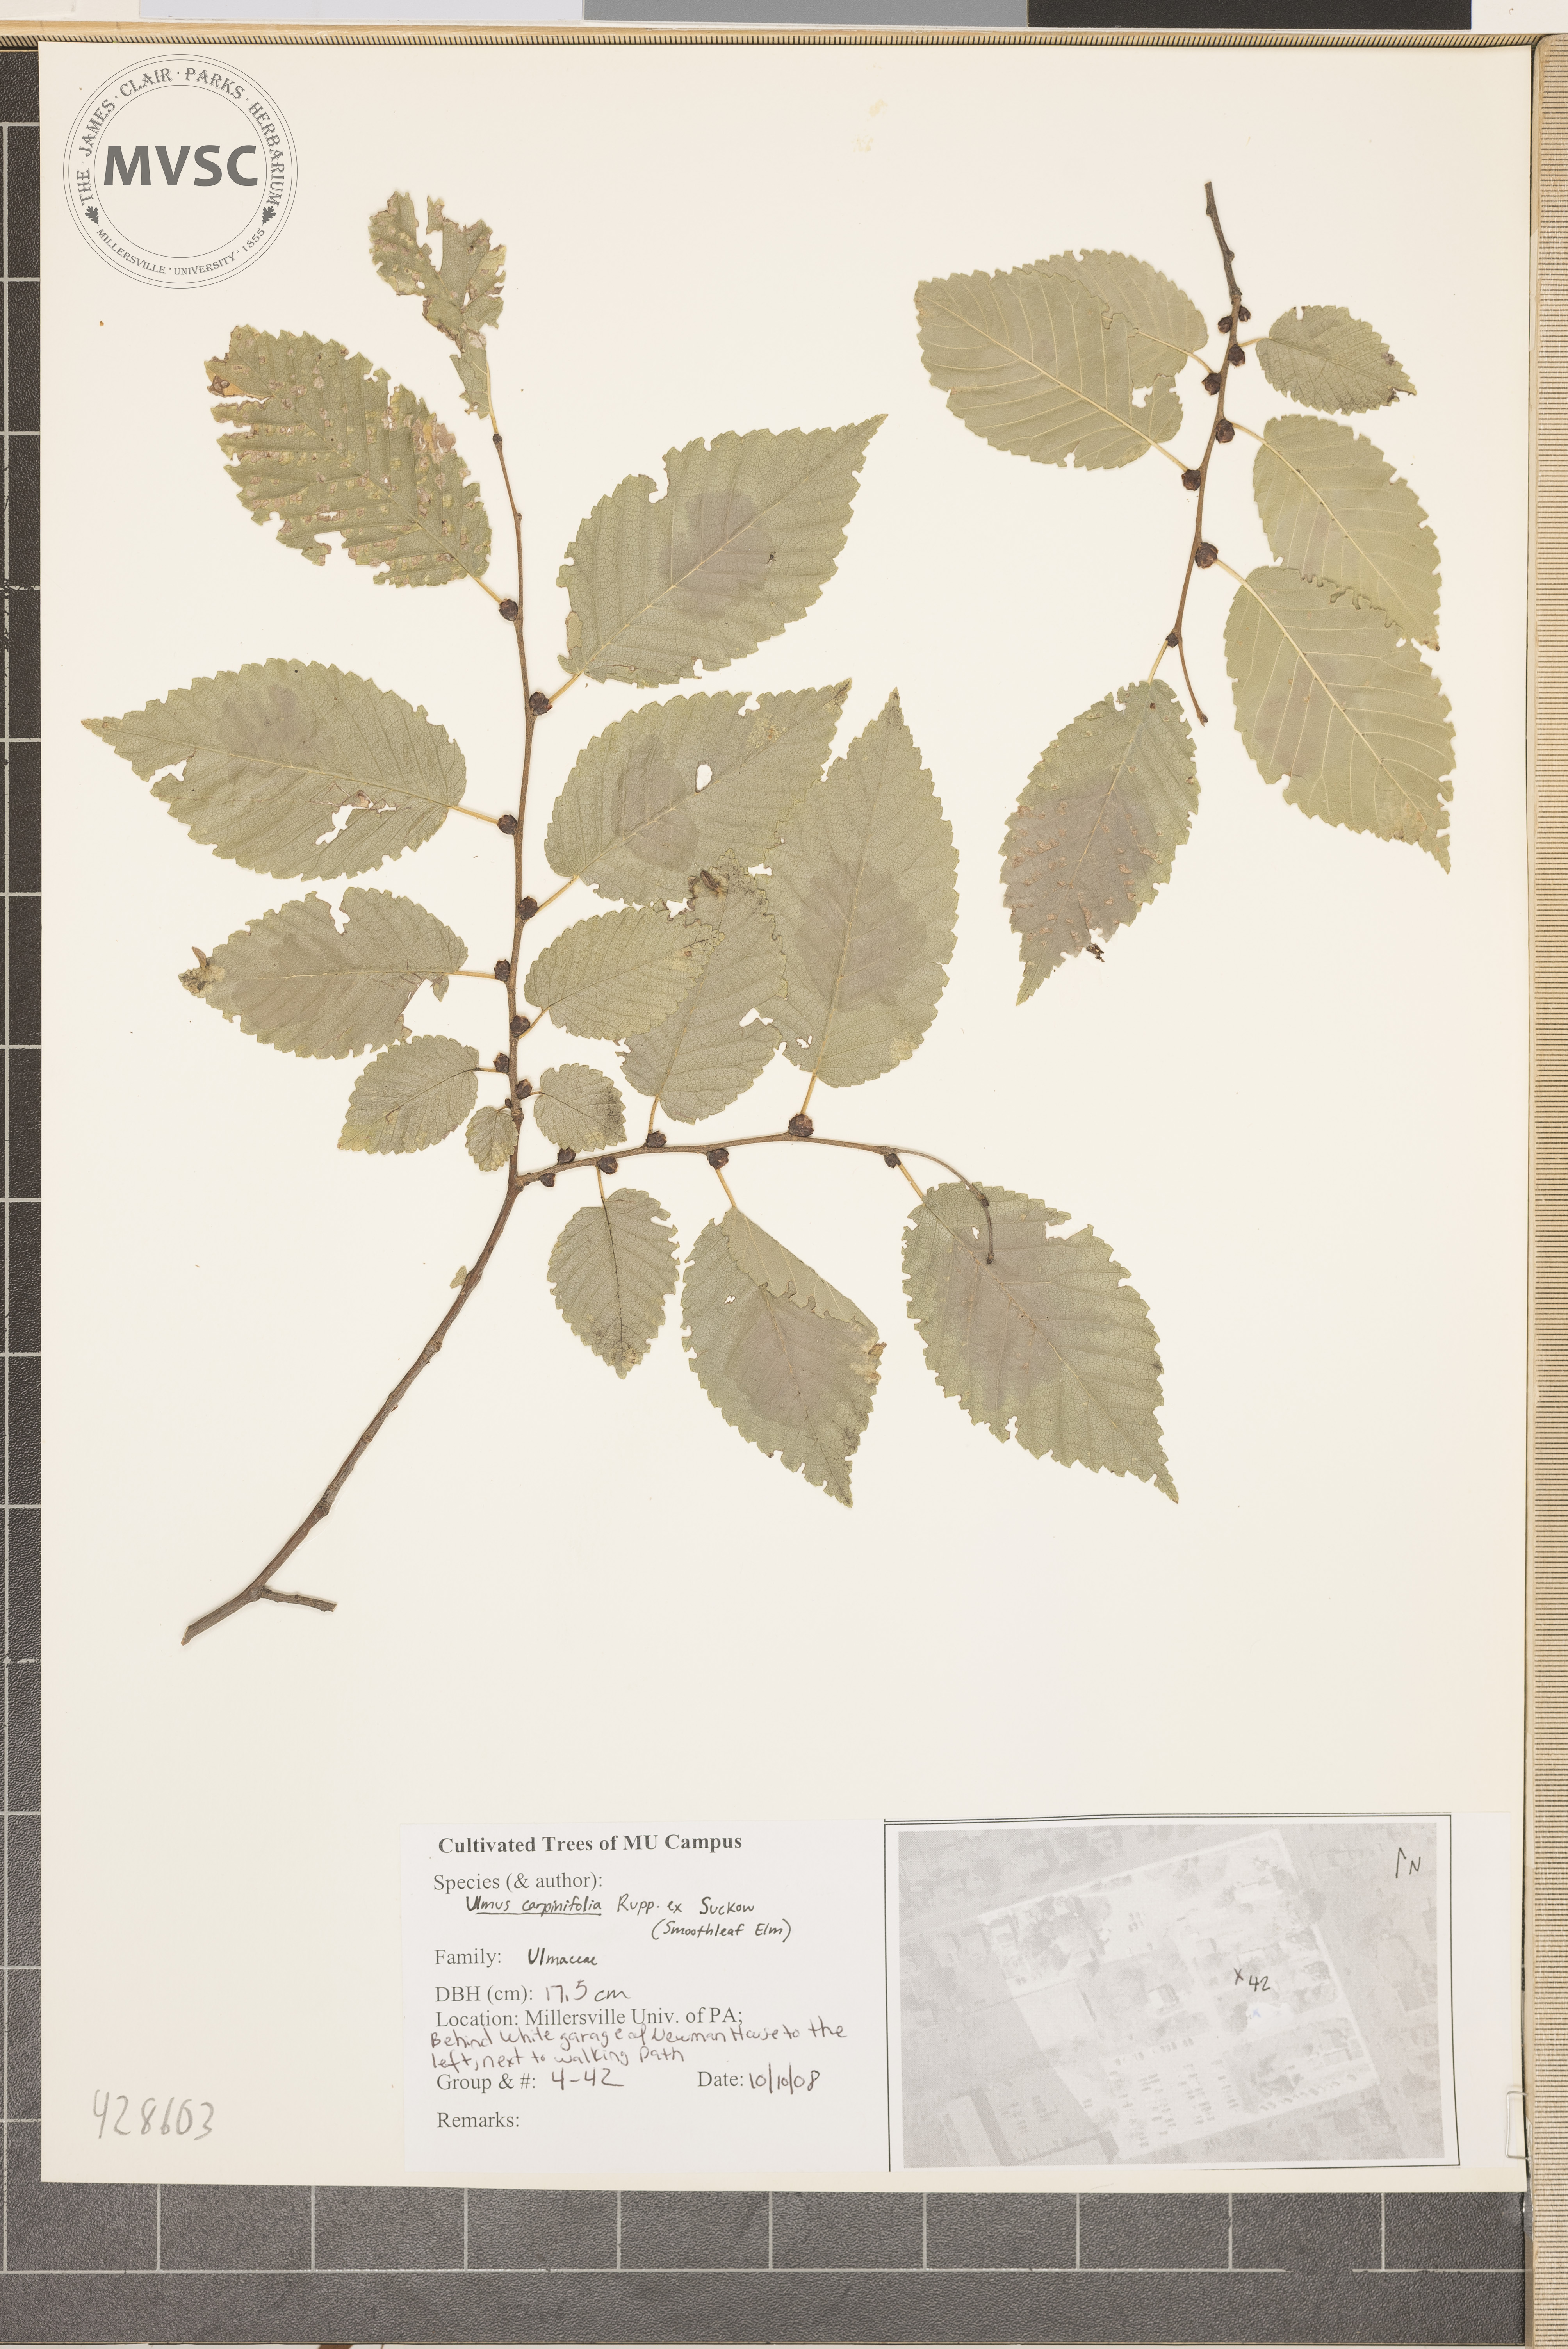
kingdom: Plantae
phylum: Tracheophyta
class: Magnoliopsida
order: Rosales
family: Ulmaceae
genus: Ulmus
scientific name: Ulmus carpinifolia
